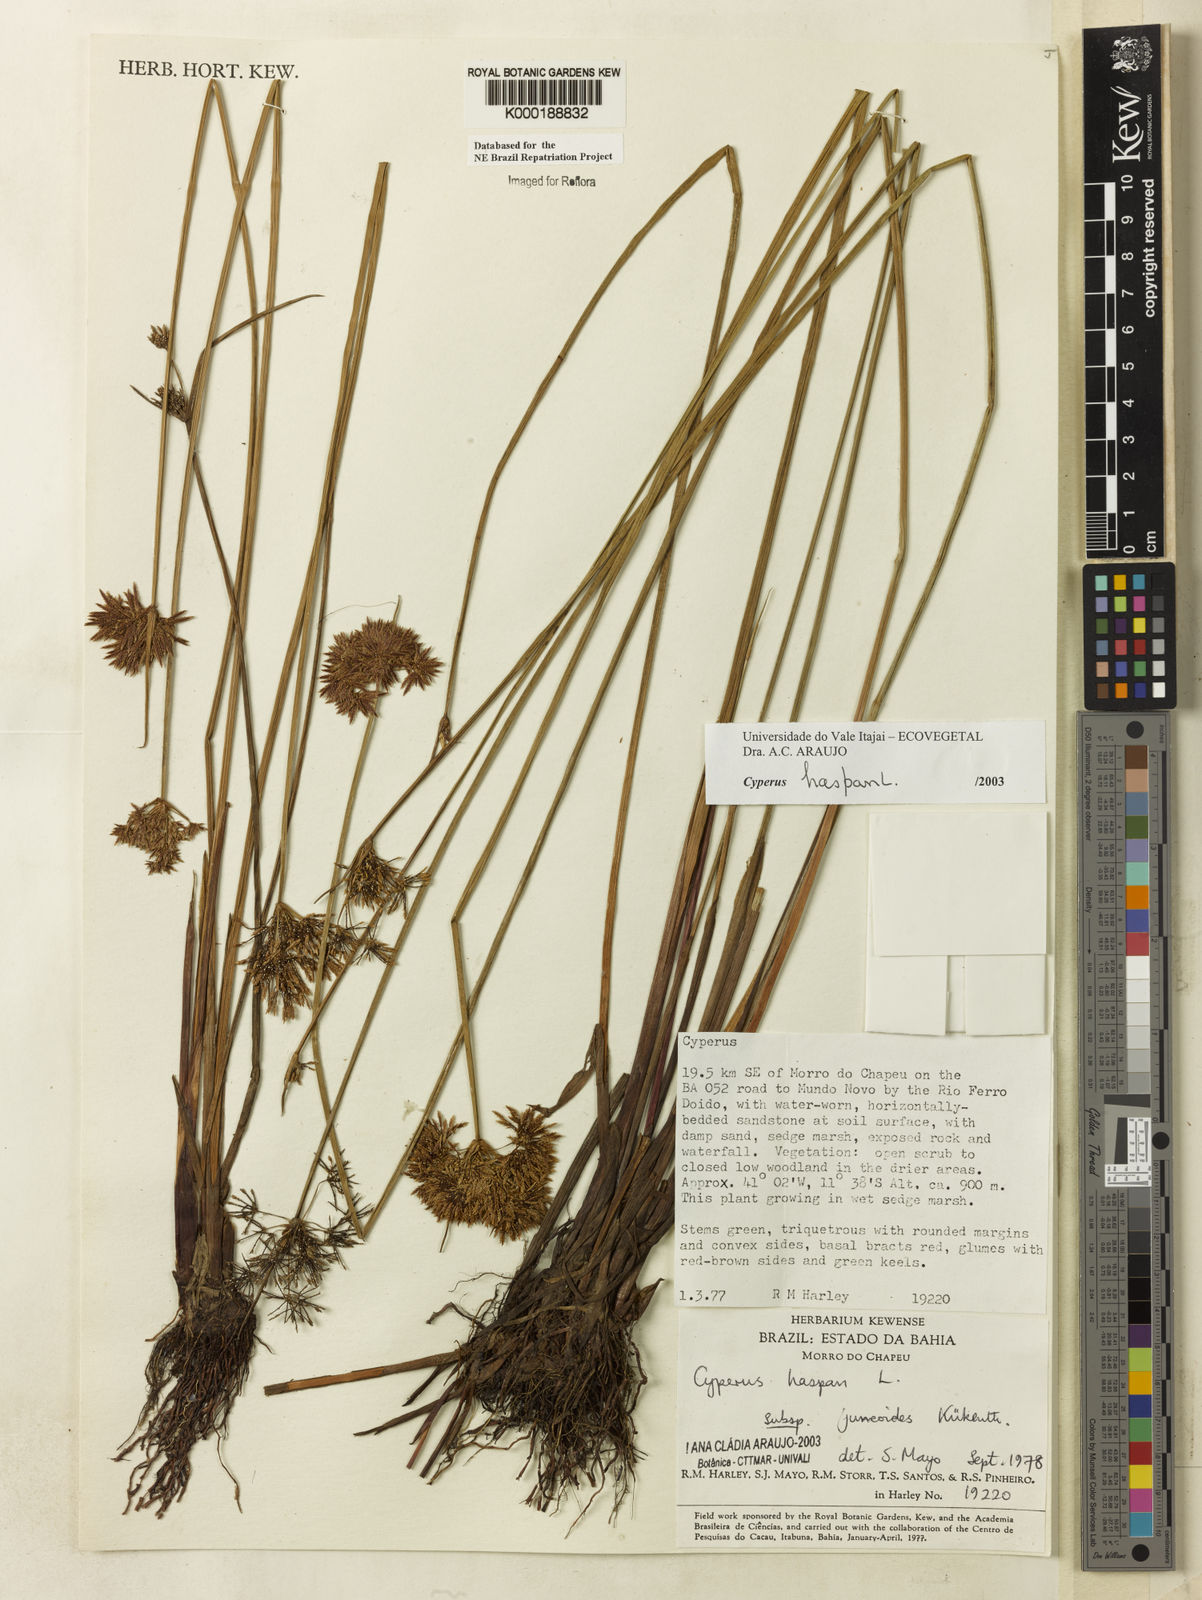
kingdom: Plantae
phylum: Tracheophyta
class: Liliopsida
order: Poales
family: Cyperaceae
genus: Cyperus
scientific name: Cyperus haspan
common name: Haspan flatsedge
